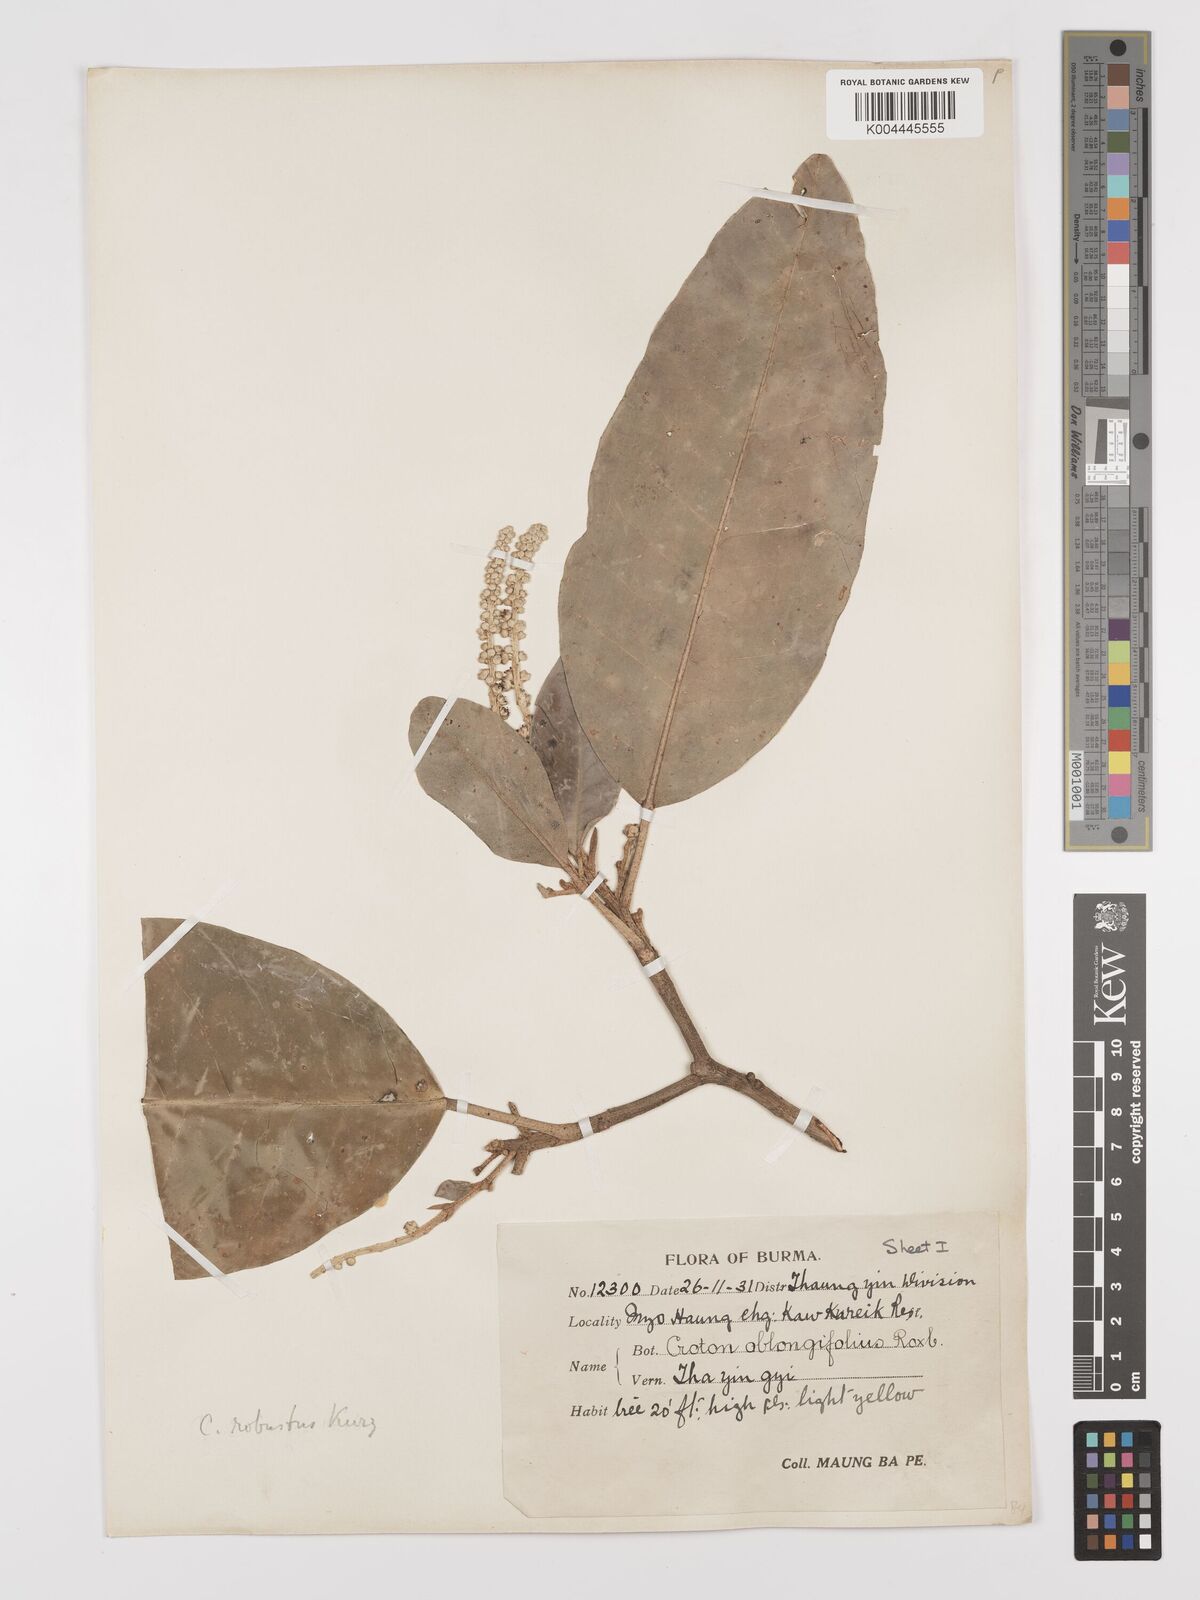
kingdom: Plantae
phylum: Tracheophyta
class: Magnoliopsida
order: Malpighiales
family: Euphorbiaceae
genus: Croton
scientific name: Croton robustus
